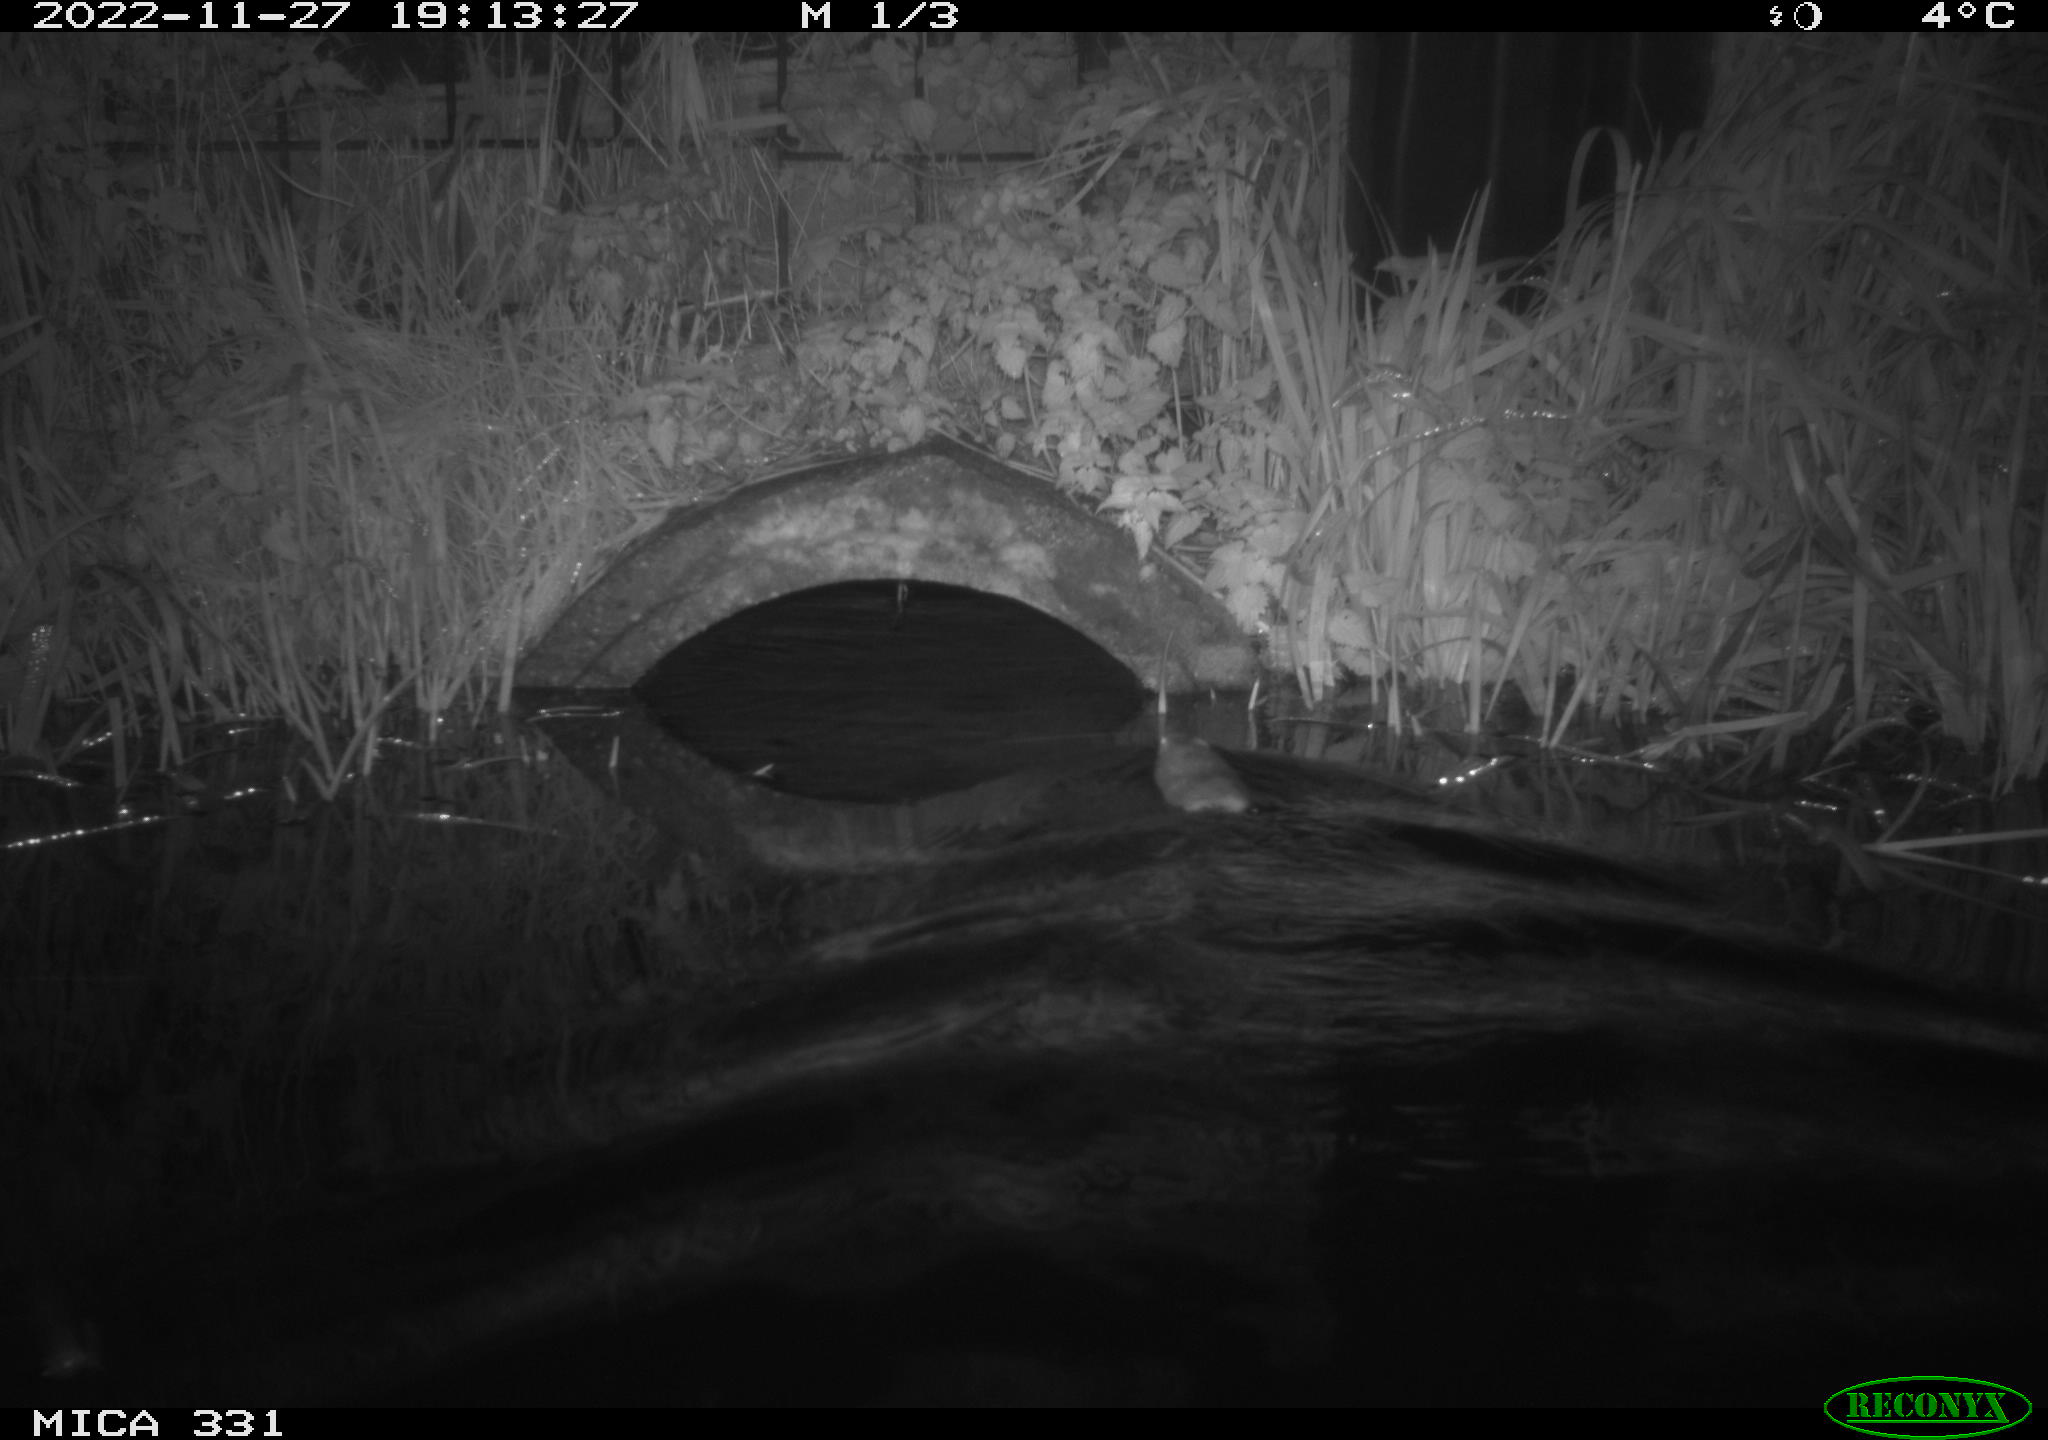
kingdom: Animalia
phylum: Chordata
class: Mammalia
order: Rodentia
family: Muridae
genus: Rattus
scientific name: Rattus norvegicus
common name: Brown rat
